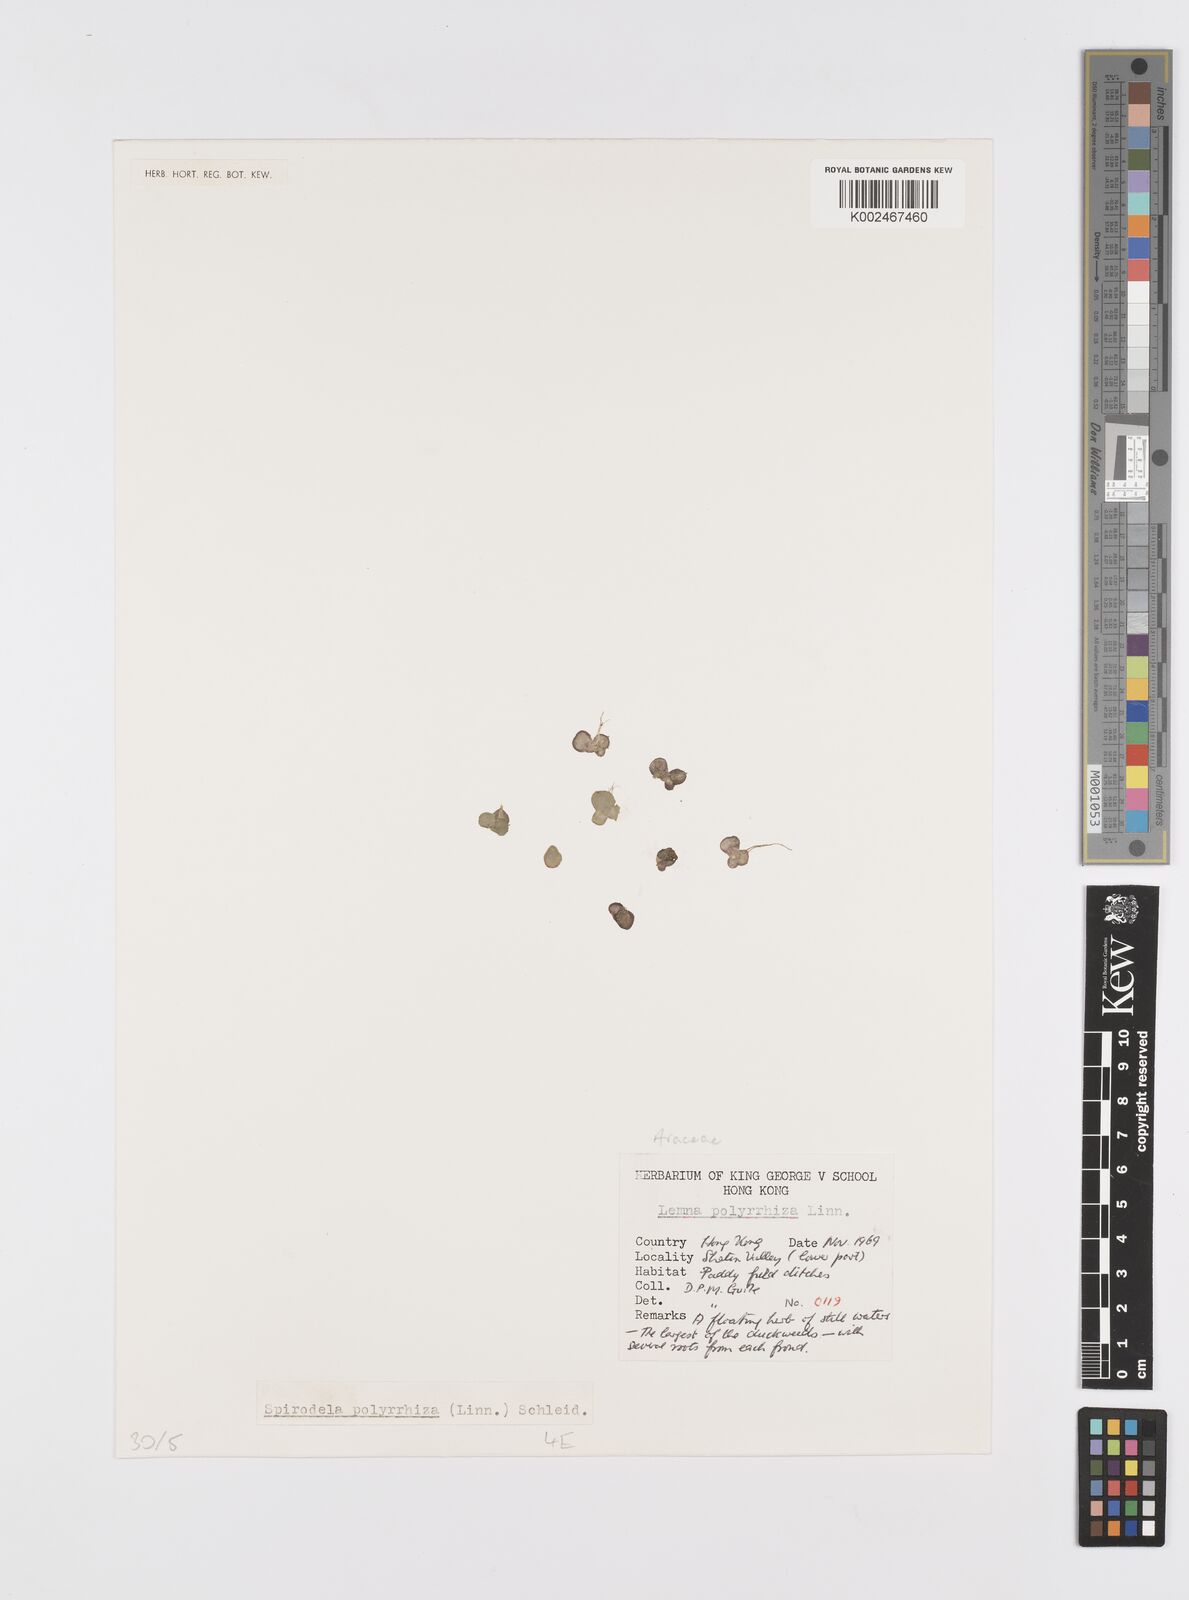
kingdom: Plantae
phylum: Tracheophyta
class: Liliopsida
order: Alismatales
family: Araceae
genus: Spirodela
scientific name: Spirodela polyrhiza
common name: Great duckweed
